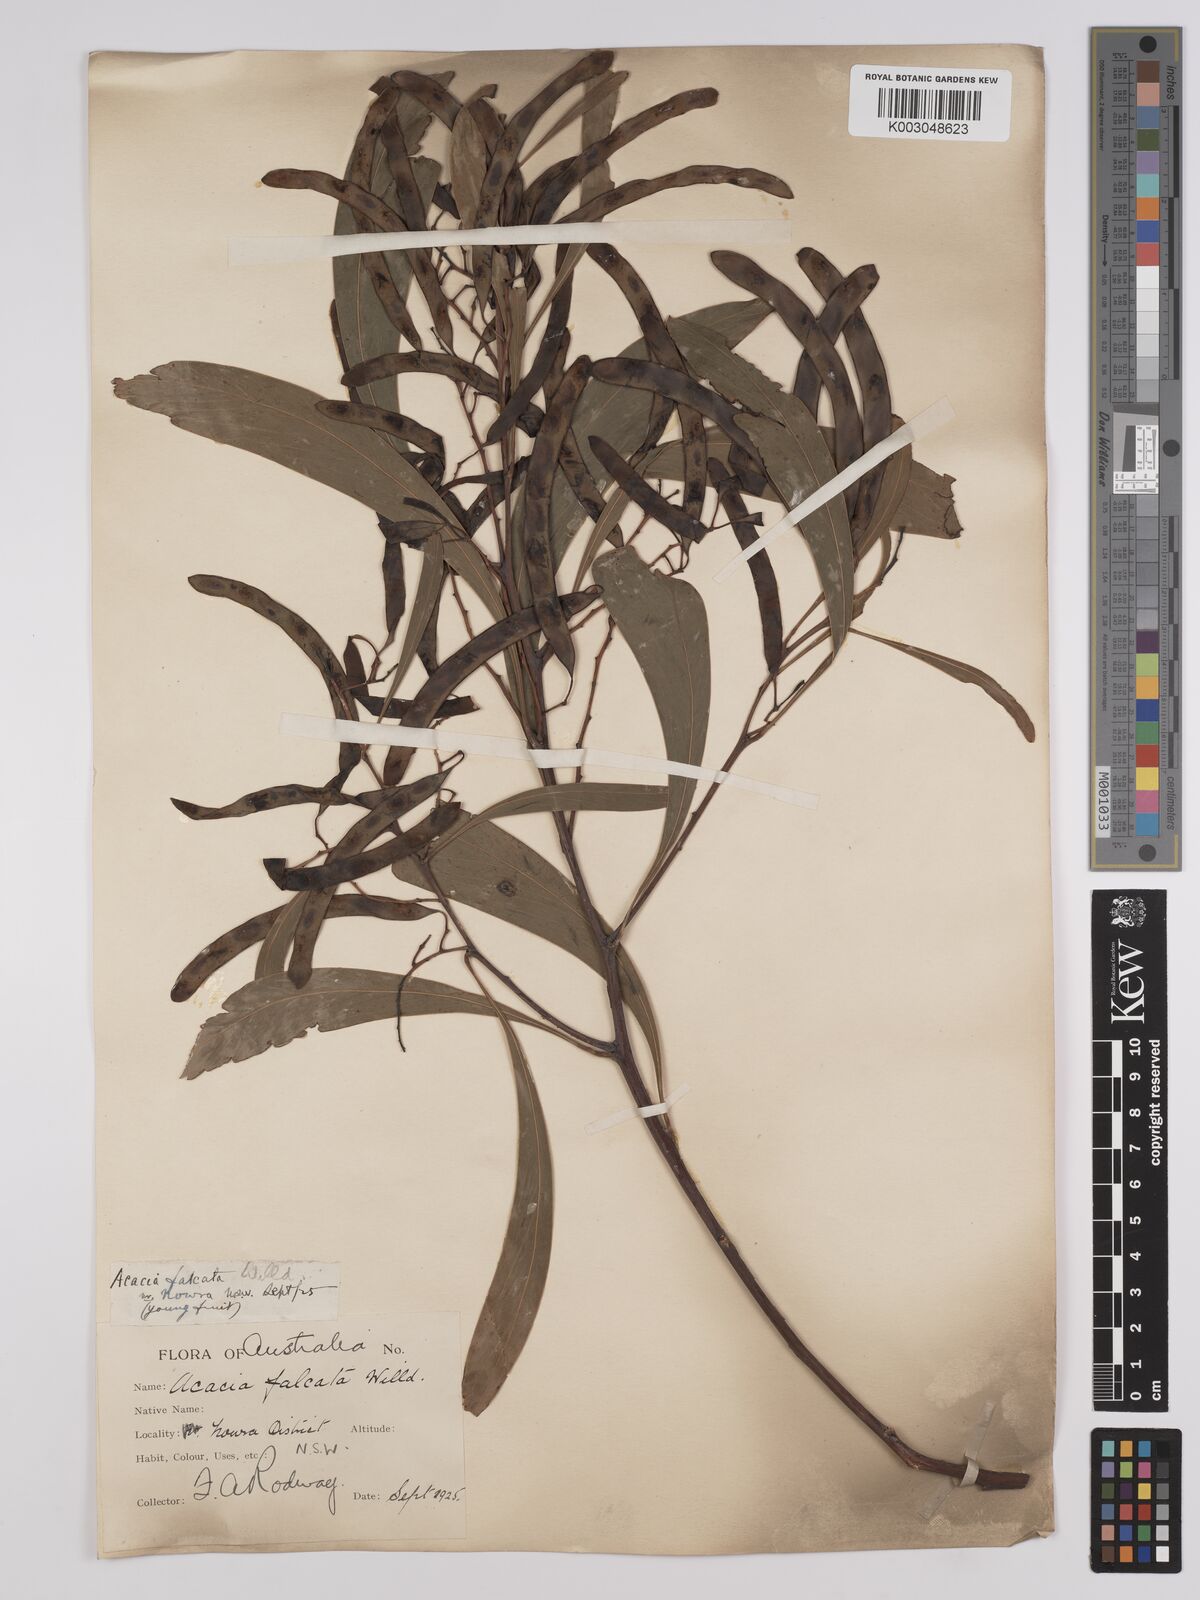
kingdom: Plantae
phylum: Tracheophyta
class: Magnoliopsida
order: Fabales
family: Fabaceae
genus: Acacia
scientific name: Acacia falcata
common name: Burra acacia
